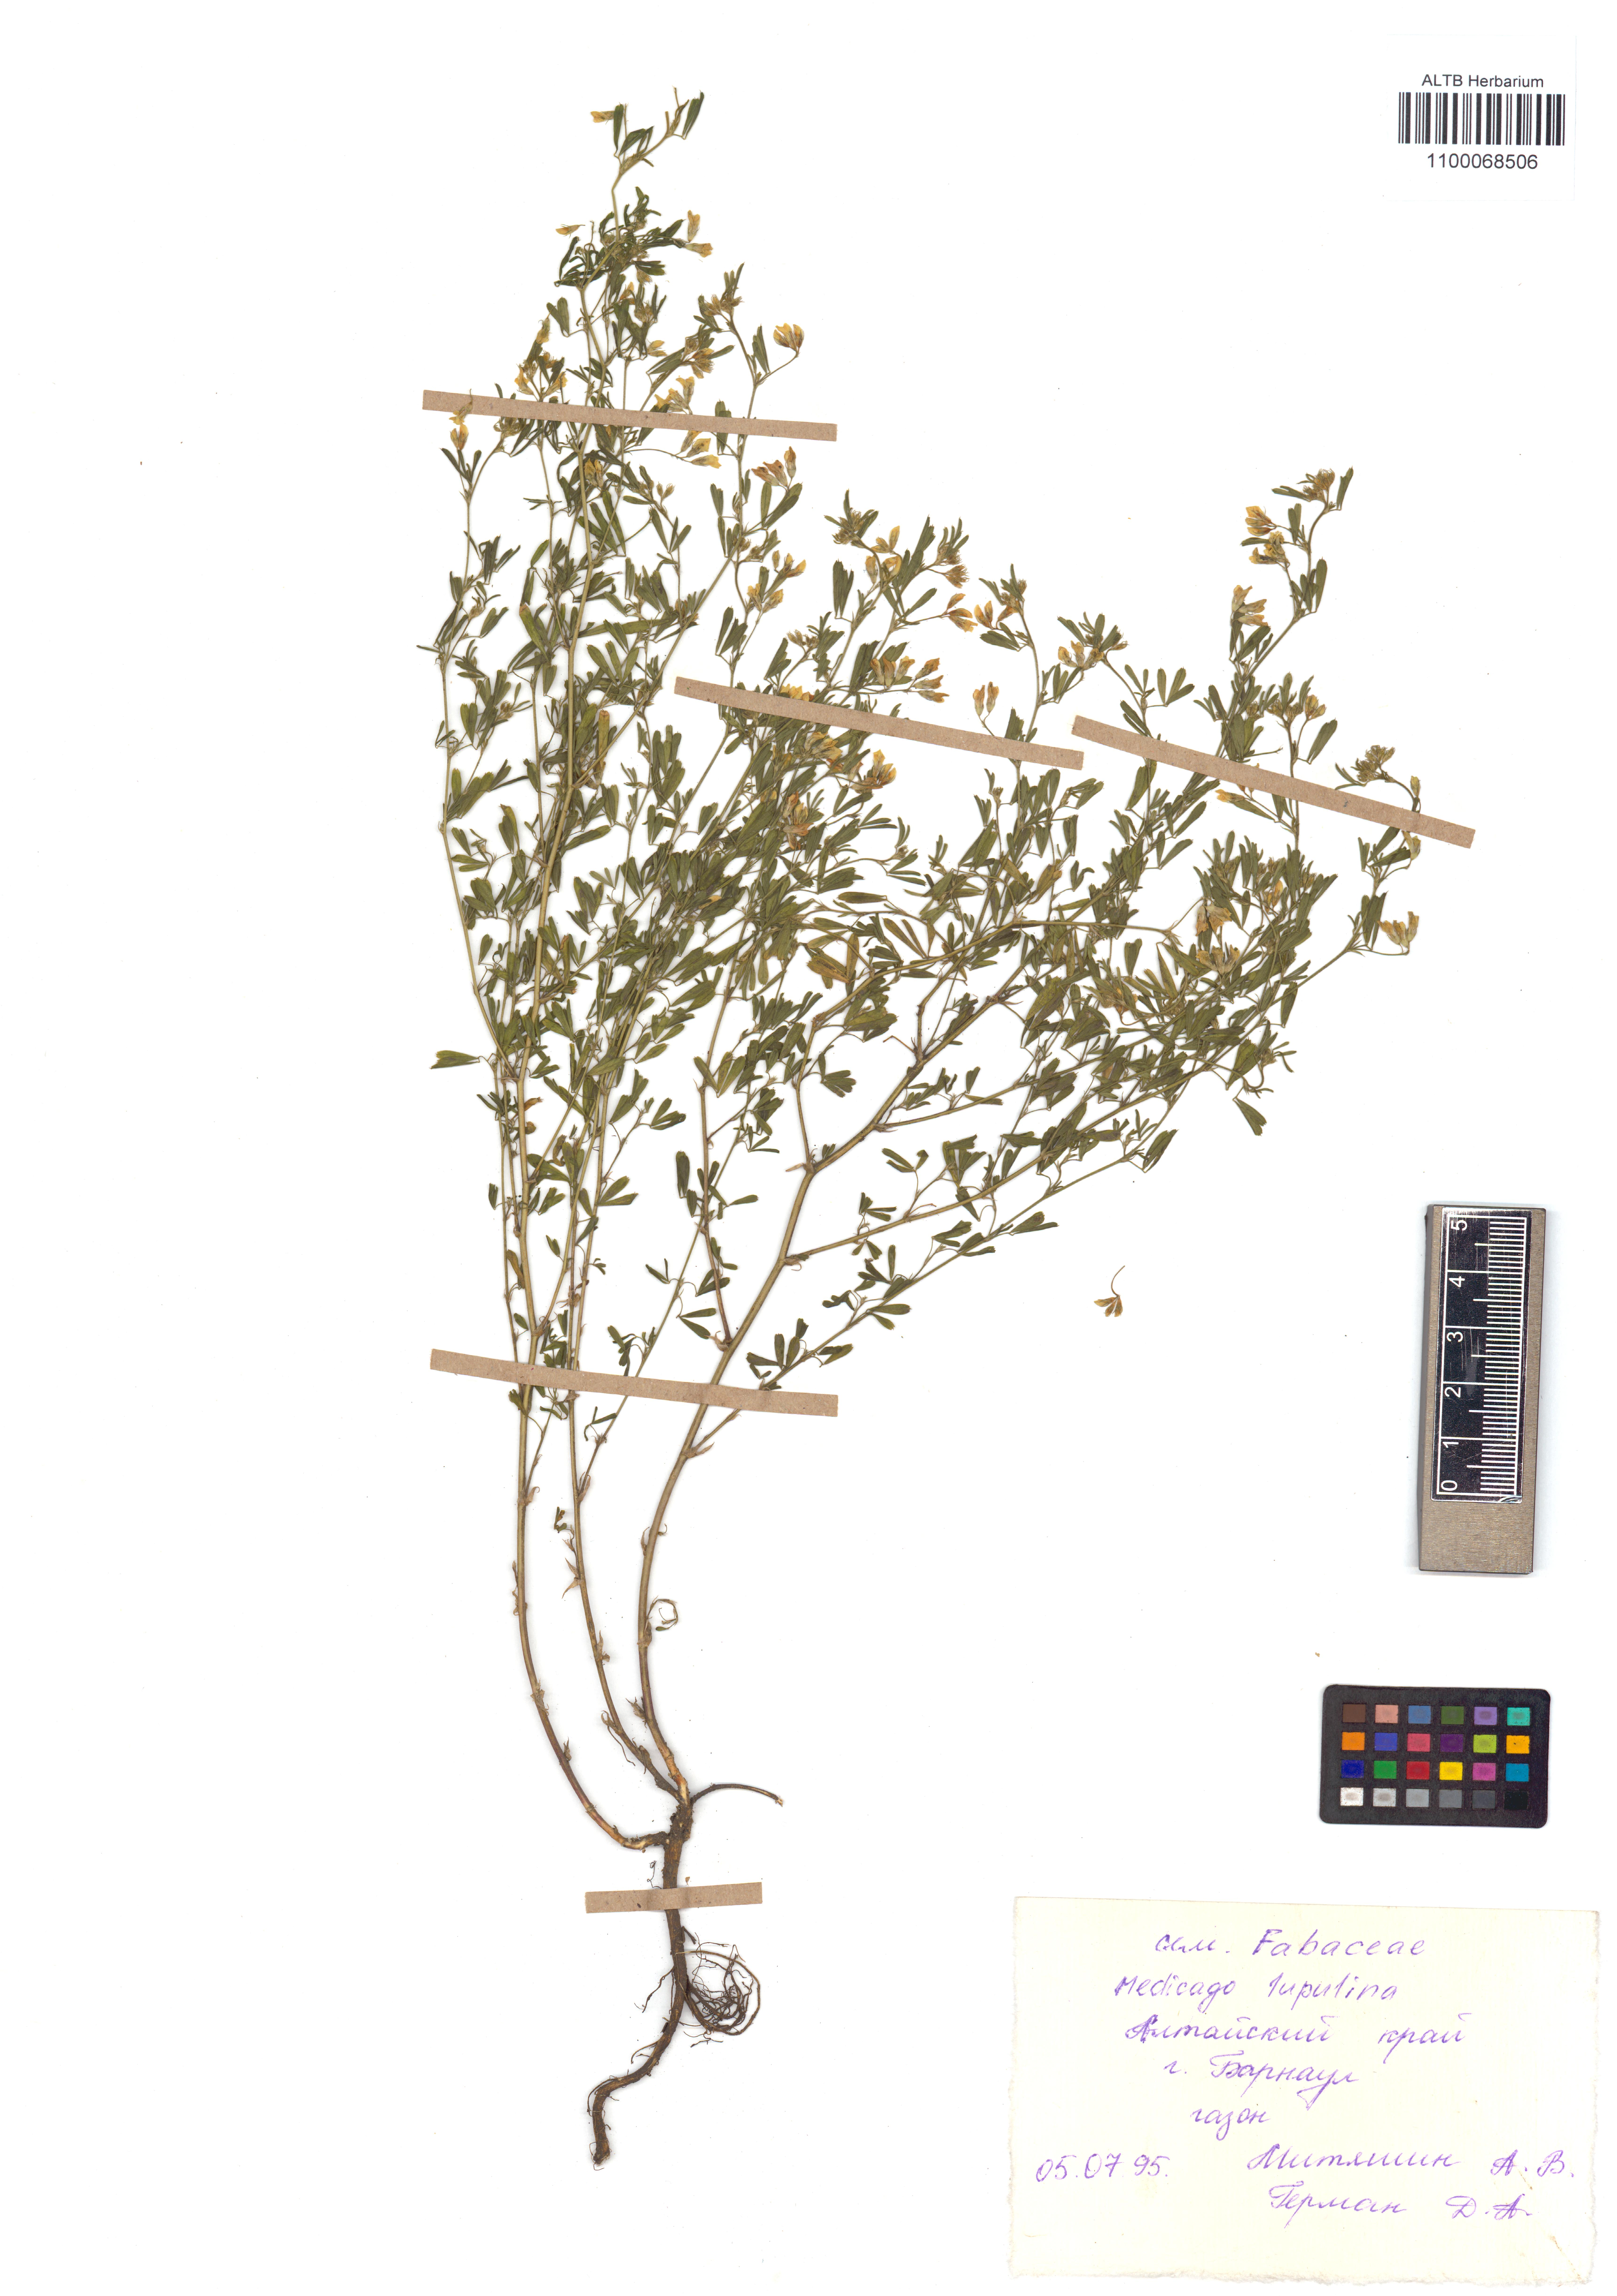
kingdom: Plantae
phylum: Tracheophyta
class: Magnoliopsida
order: Fabales
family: Fabaceae
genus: Medicago
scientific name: Medicago lupulina
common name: Black medick
